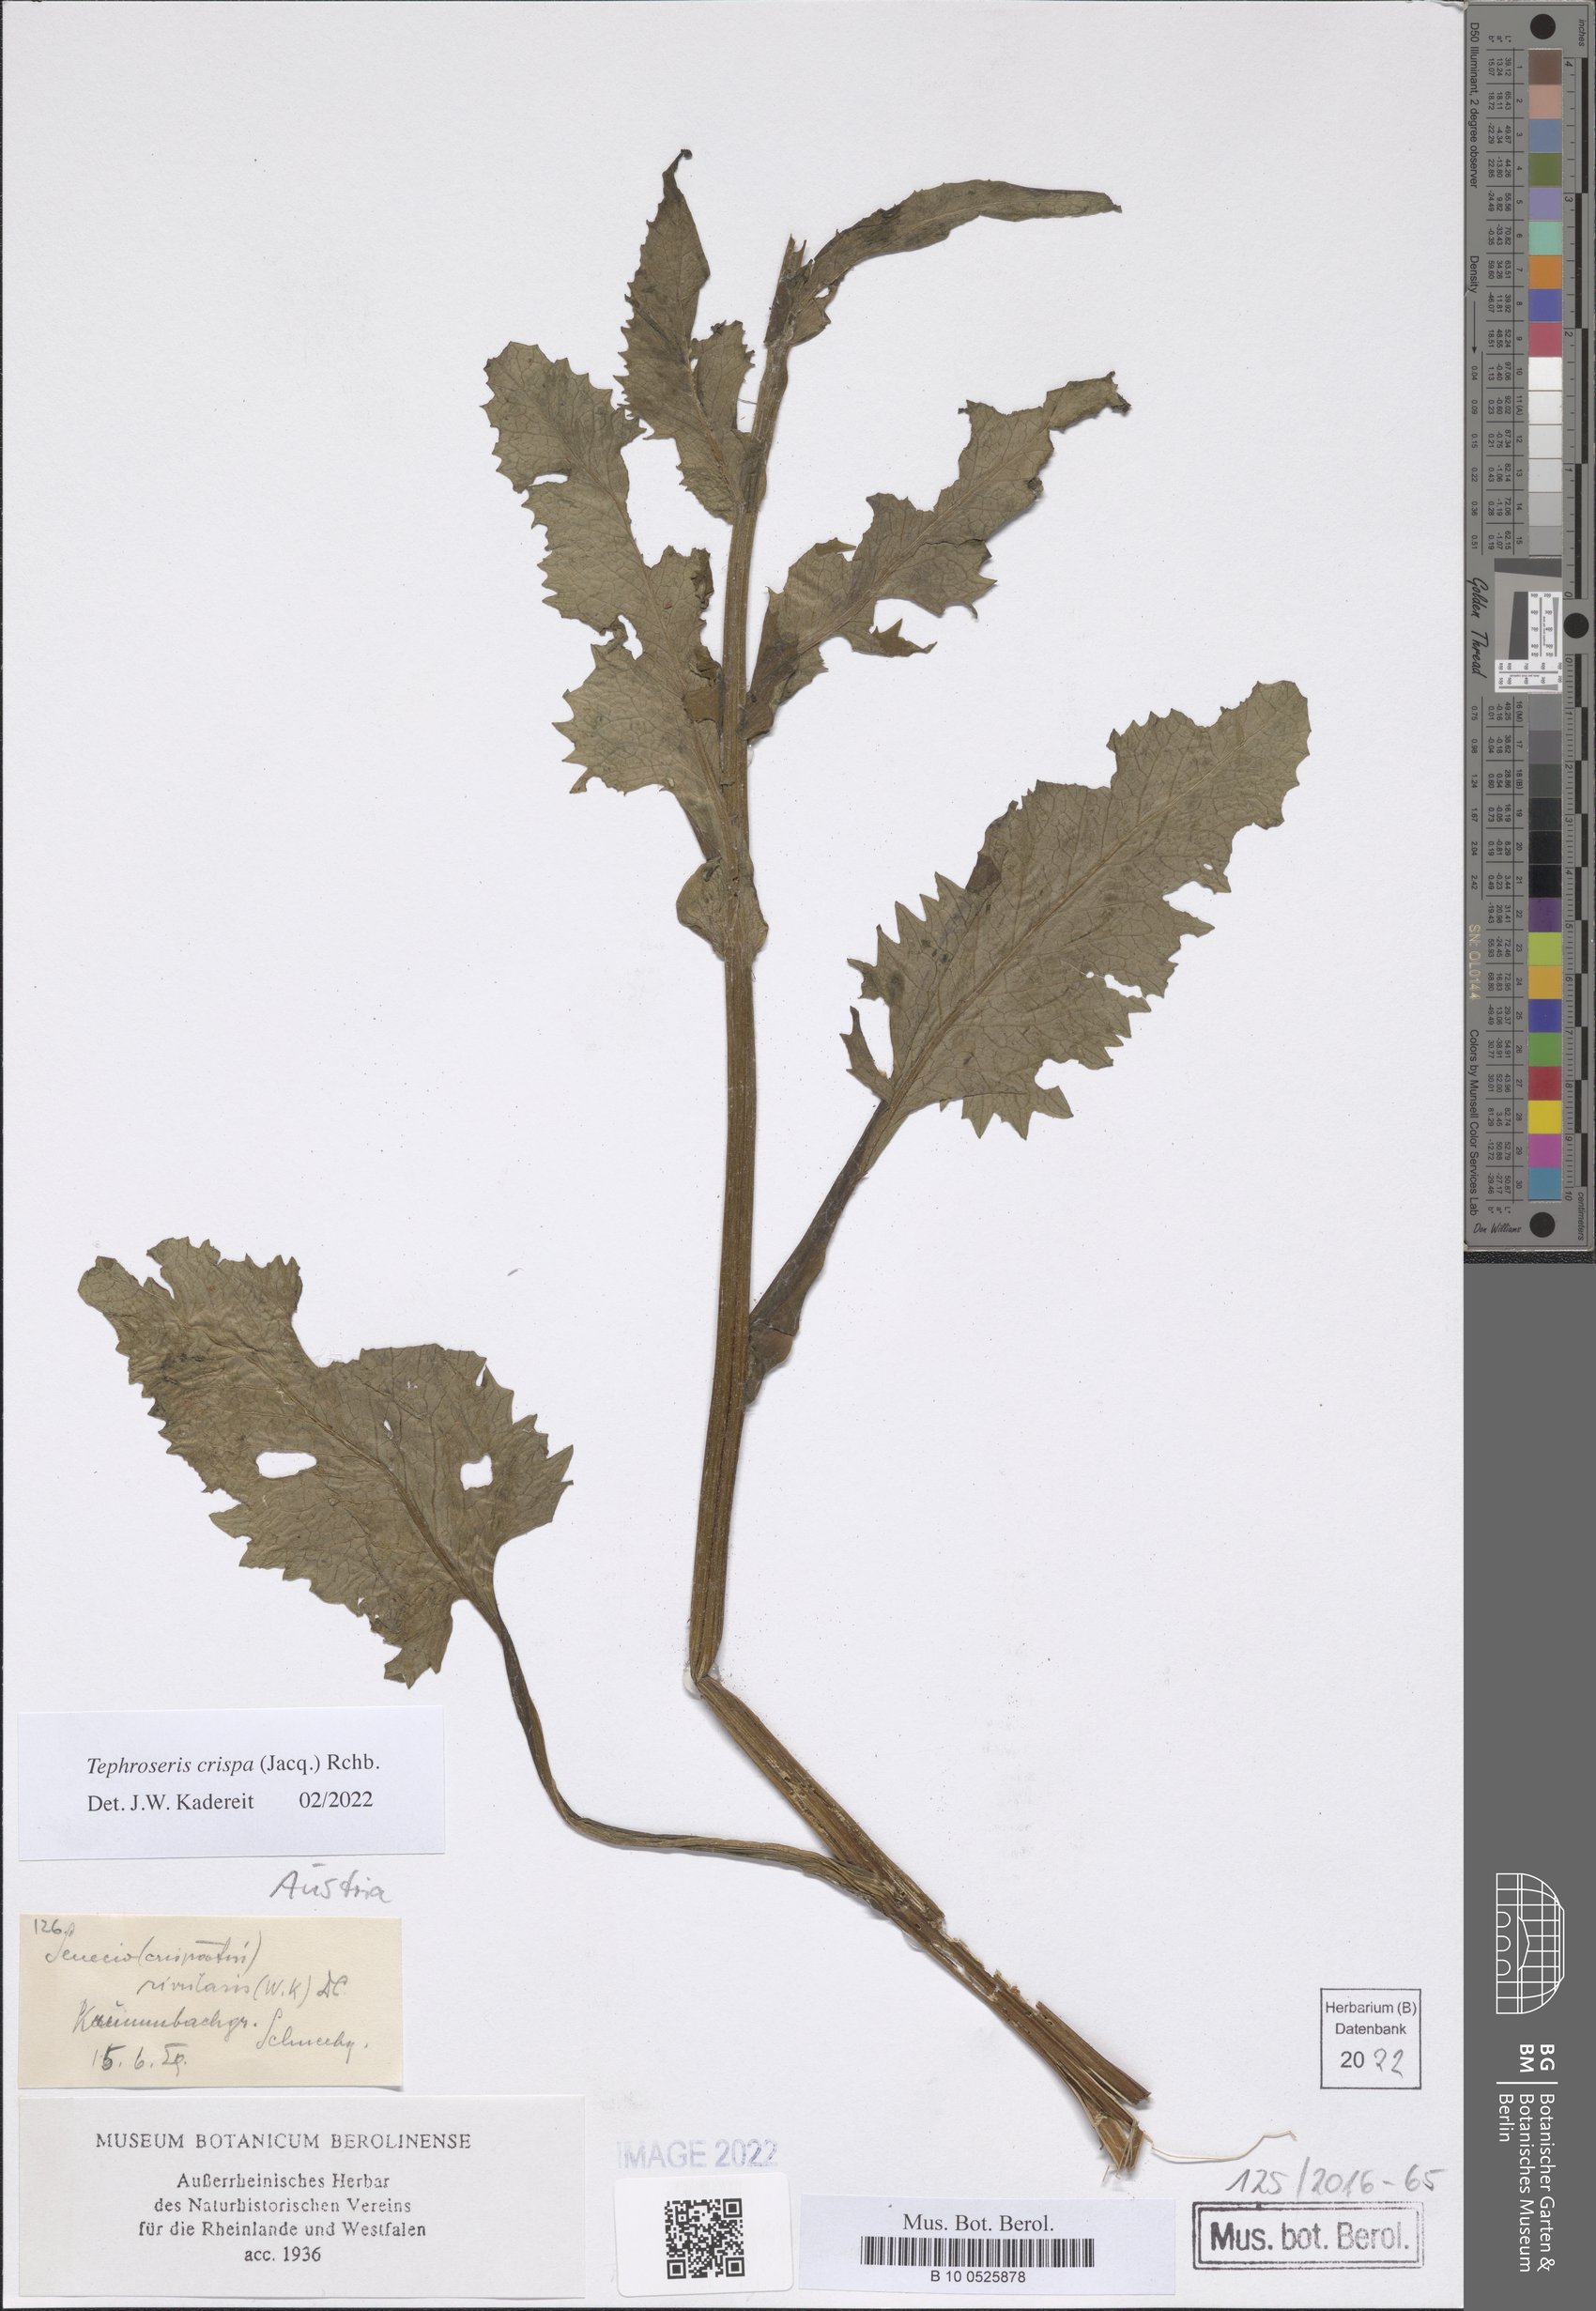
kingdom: Plantae
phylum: Tracheophyta
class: Magnoliopsida
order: Asterales
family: Asteraceae
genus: Tephroseris
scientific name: Tephroseris crispa
